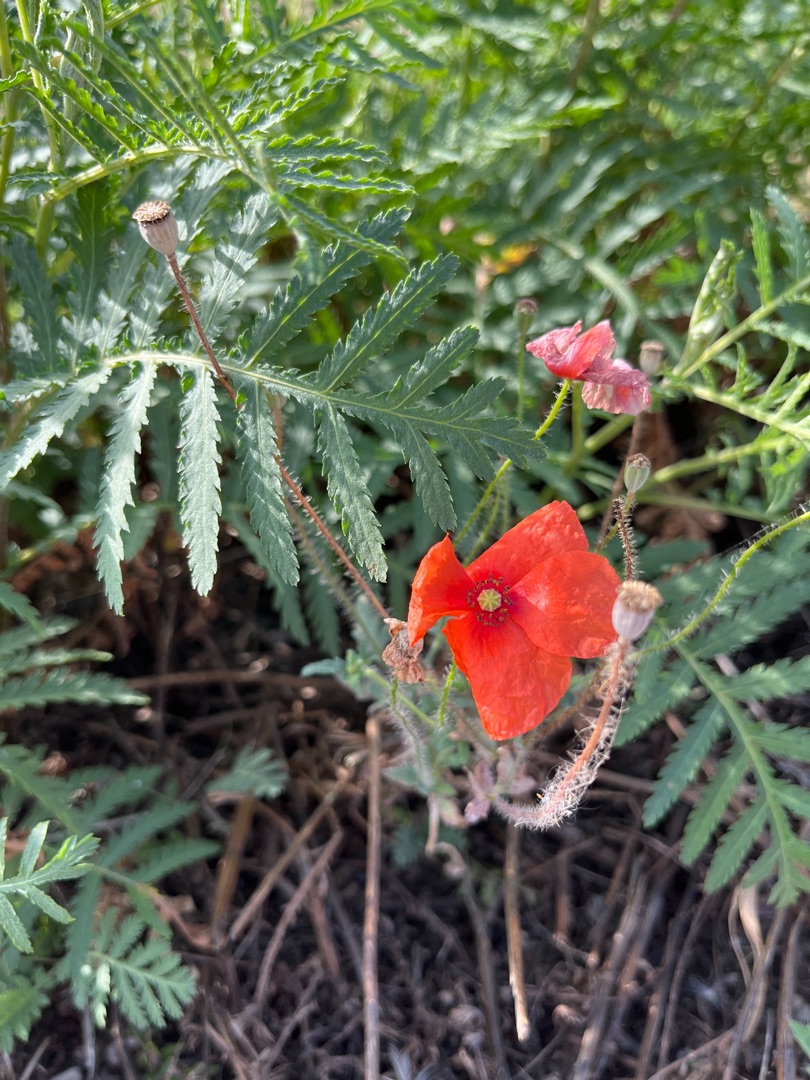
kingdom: Plantae
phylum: Tracheophyta
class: Magnoliopsida
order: Ranunculales
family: Papaveraceae
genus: Papaver
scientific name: Papaver rhoeas
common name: Korn-valmue
